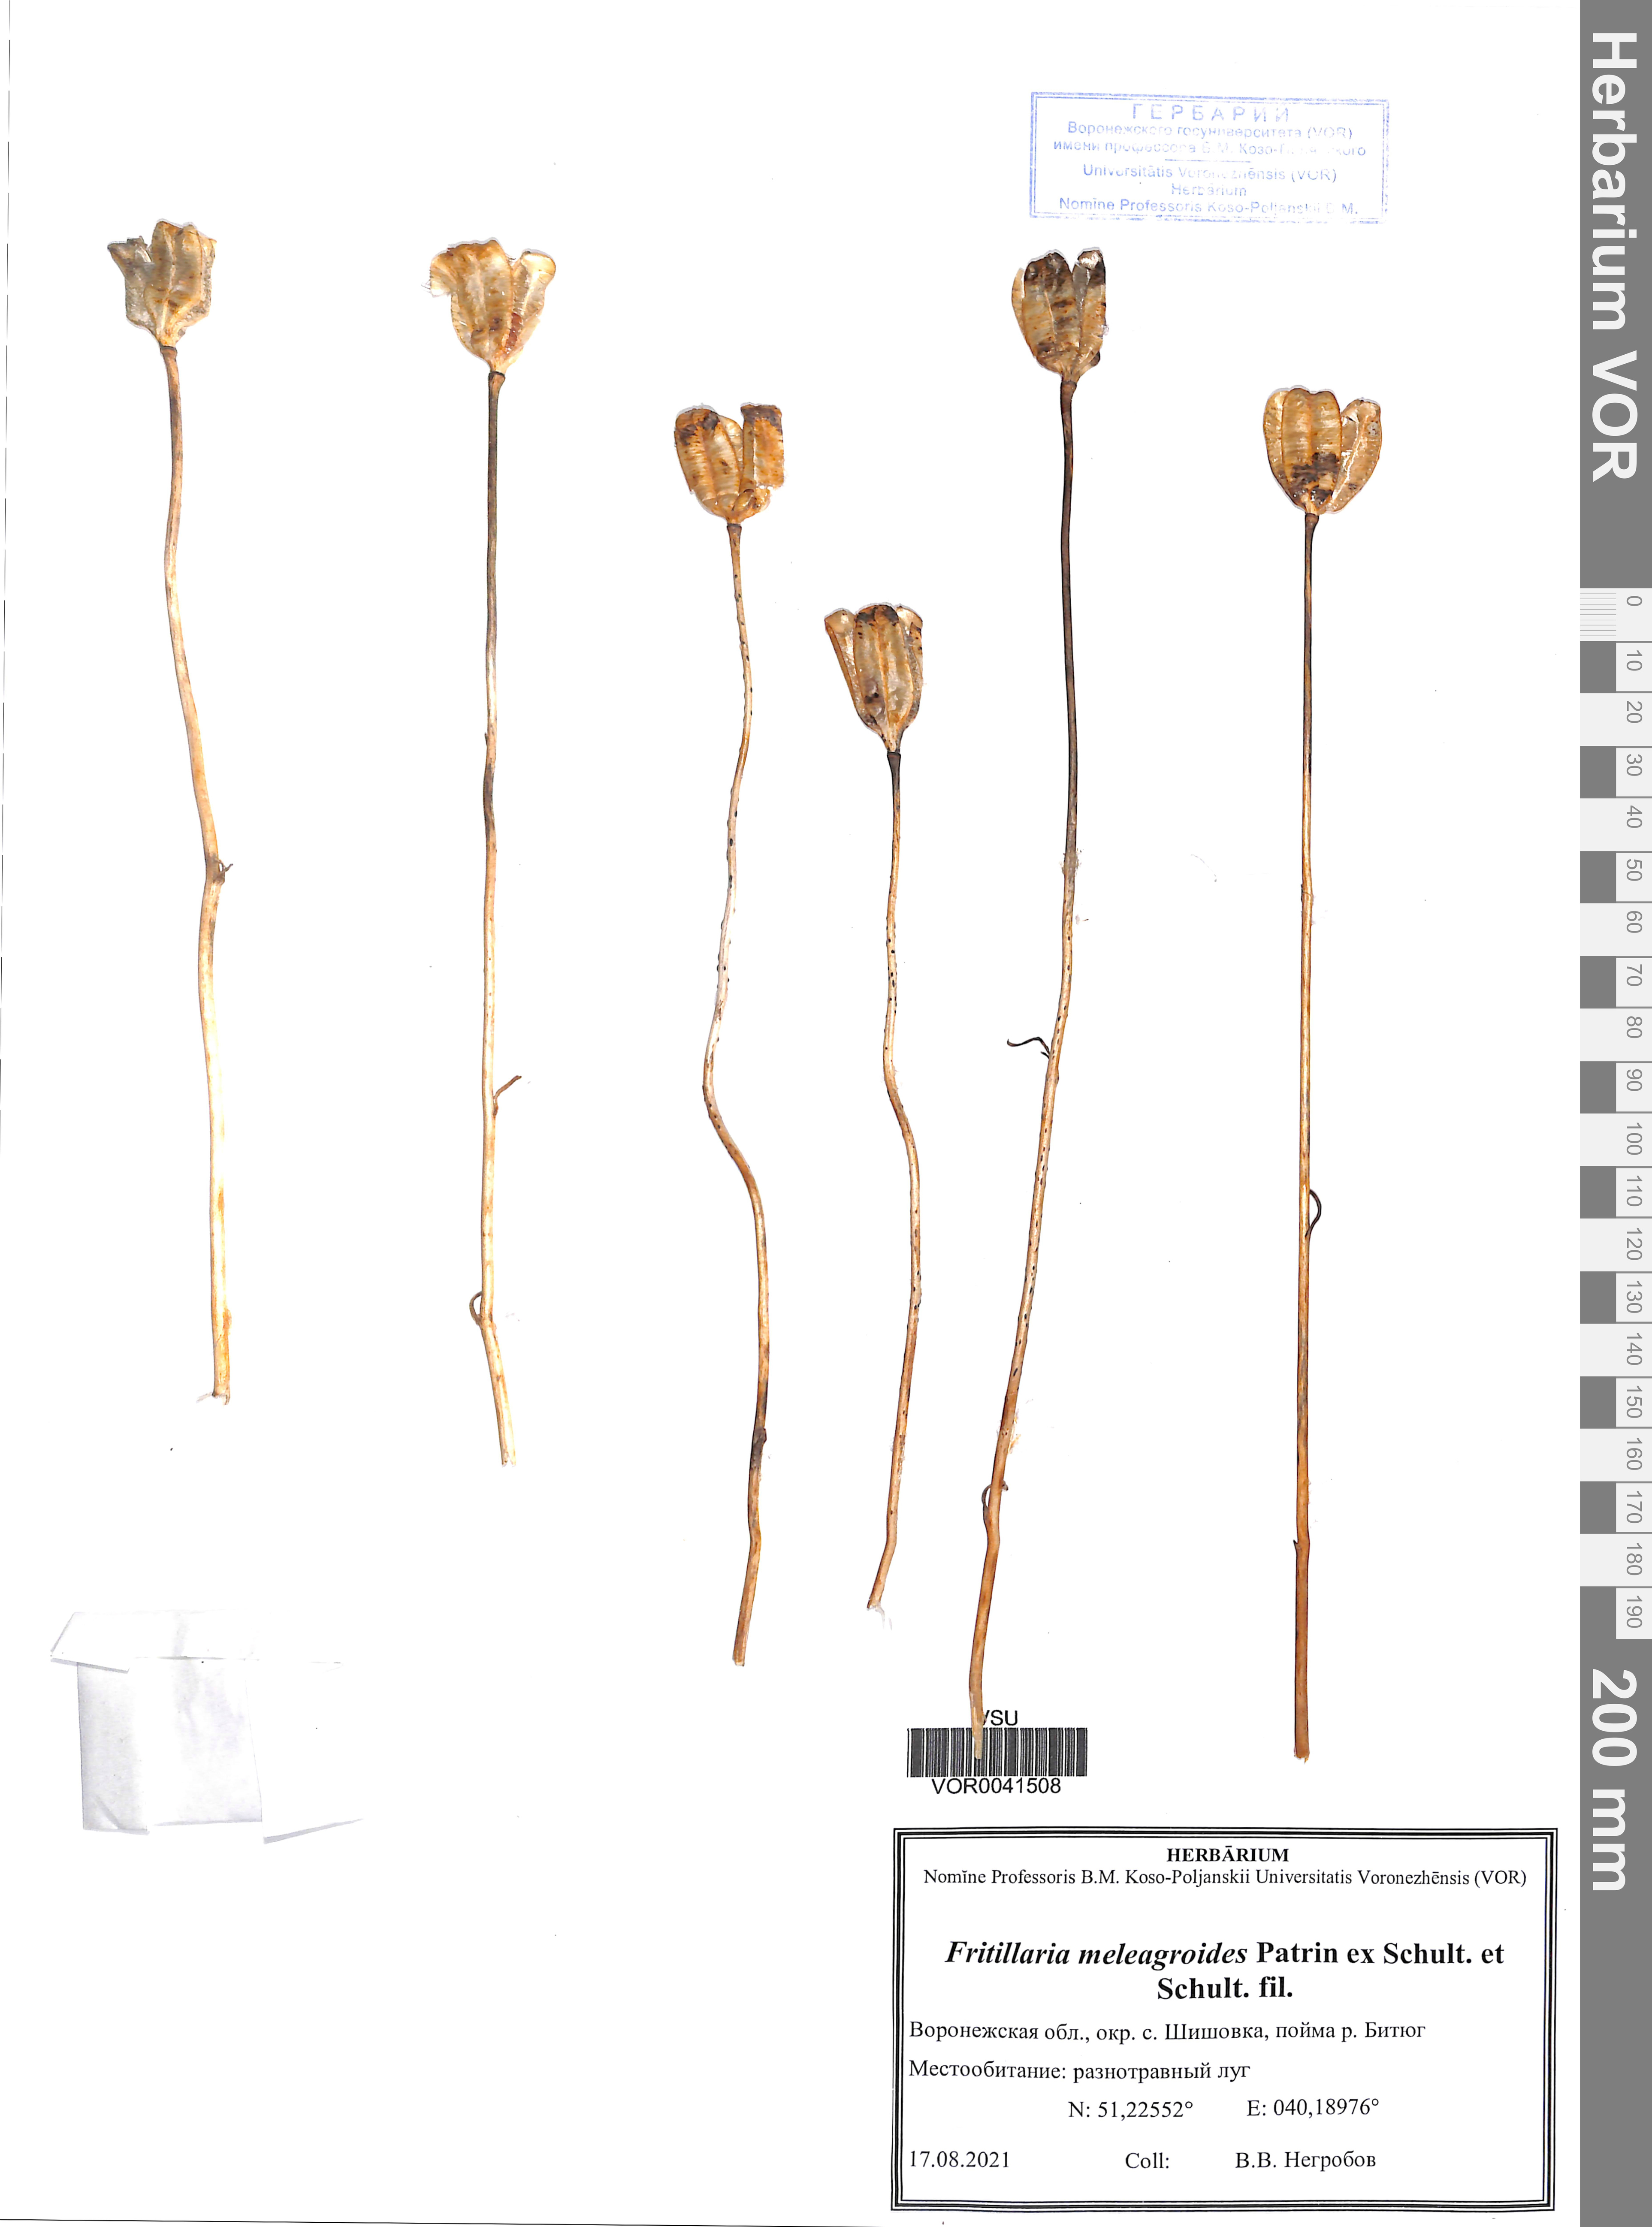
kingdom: Plantae
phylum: Tracheophyta
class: Liliopsida
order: Liliales
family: Liliaceae
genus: Fritillaria
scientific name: Fritillaria meleagroides
